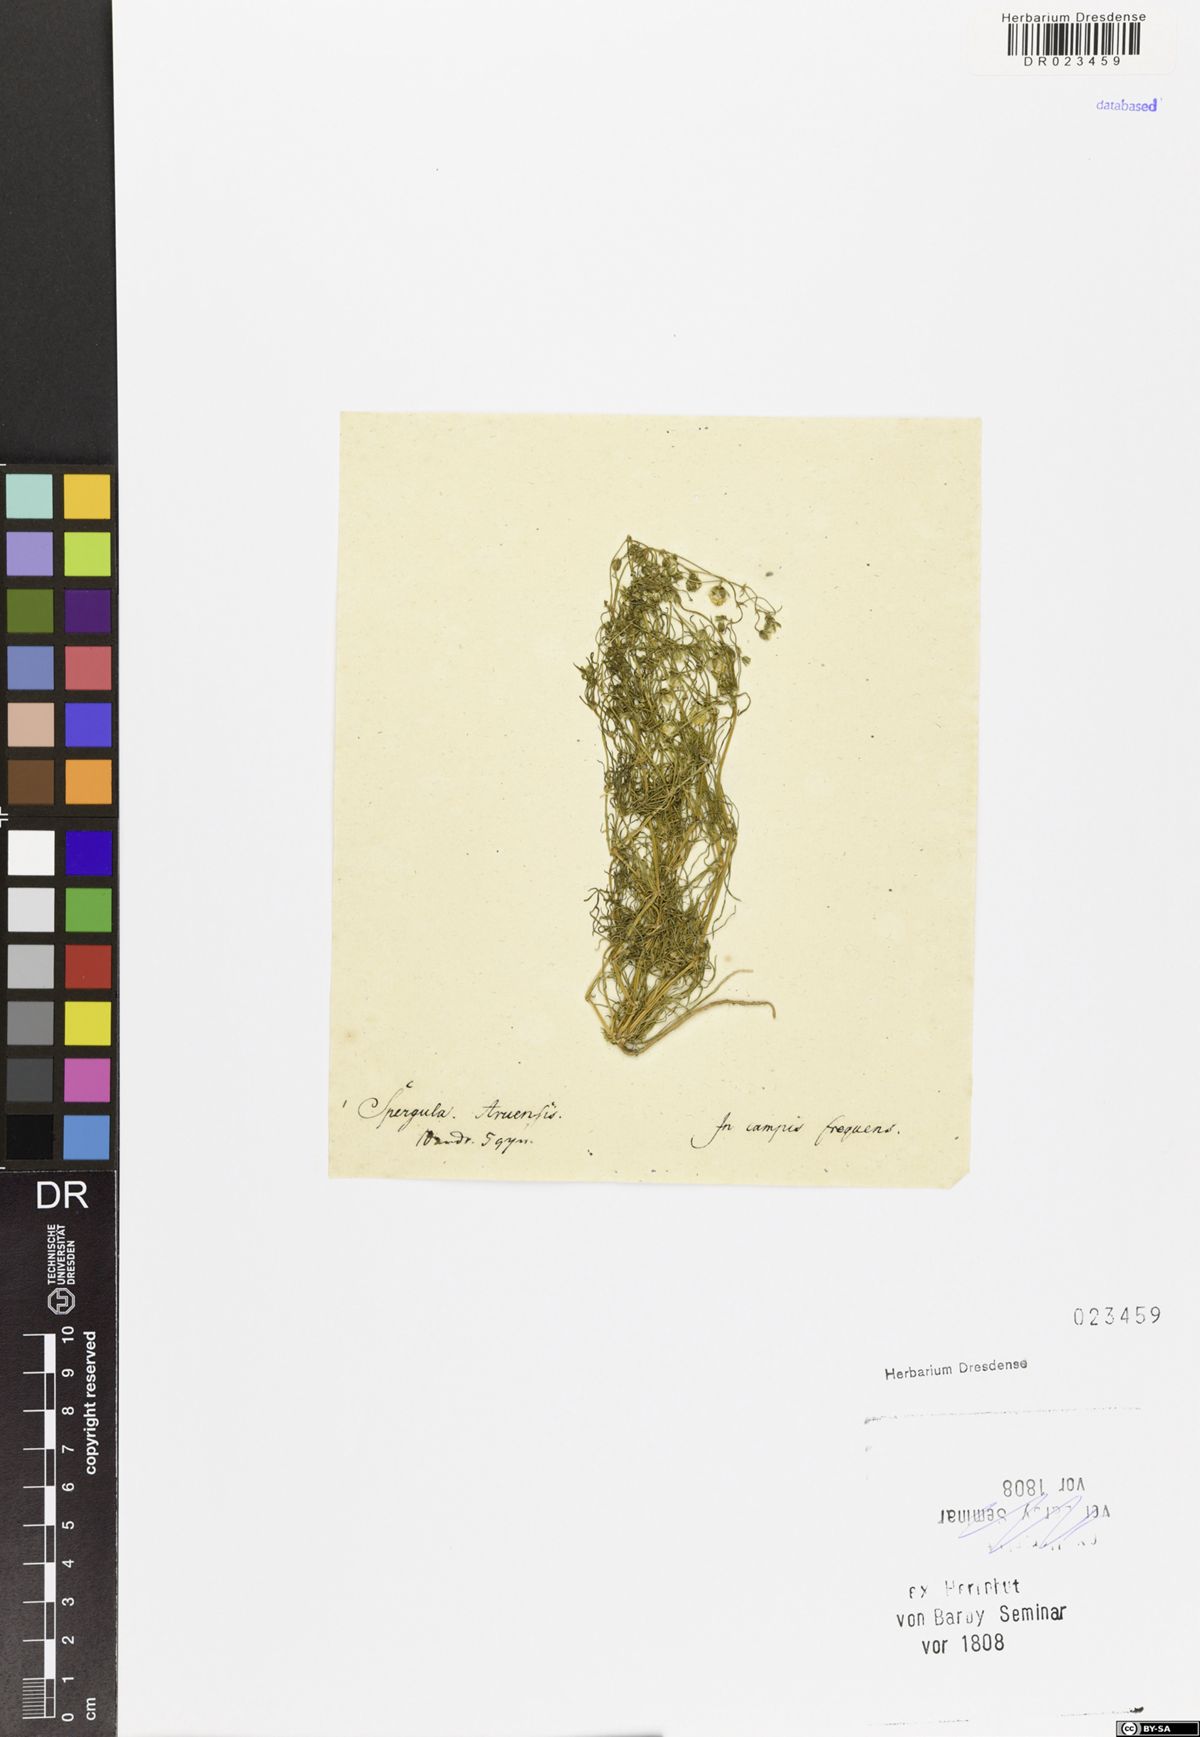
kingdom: Plantae
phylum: Tracheophyta
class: Magnoliopsida
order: Caryophyllales
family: Caryophyllaceae
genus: Spergula
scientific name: Spergula arvensis
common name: Corn spurrey
